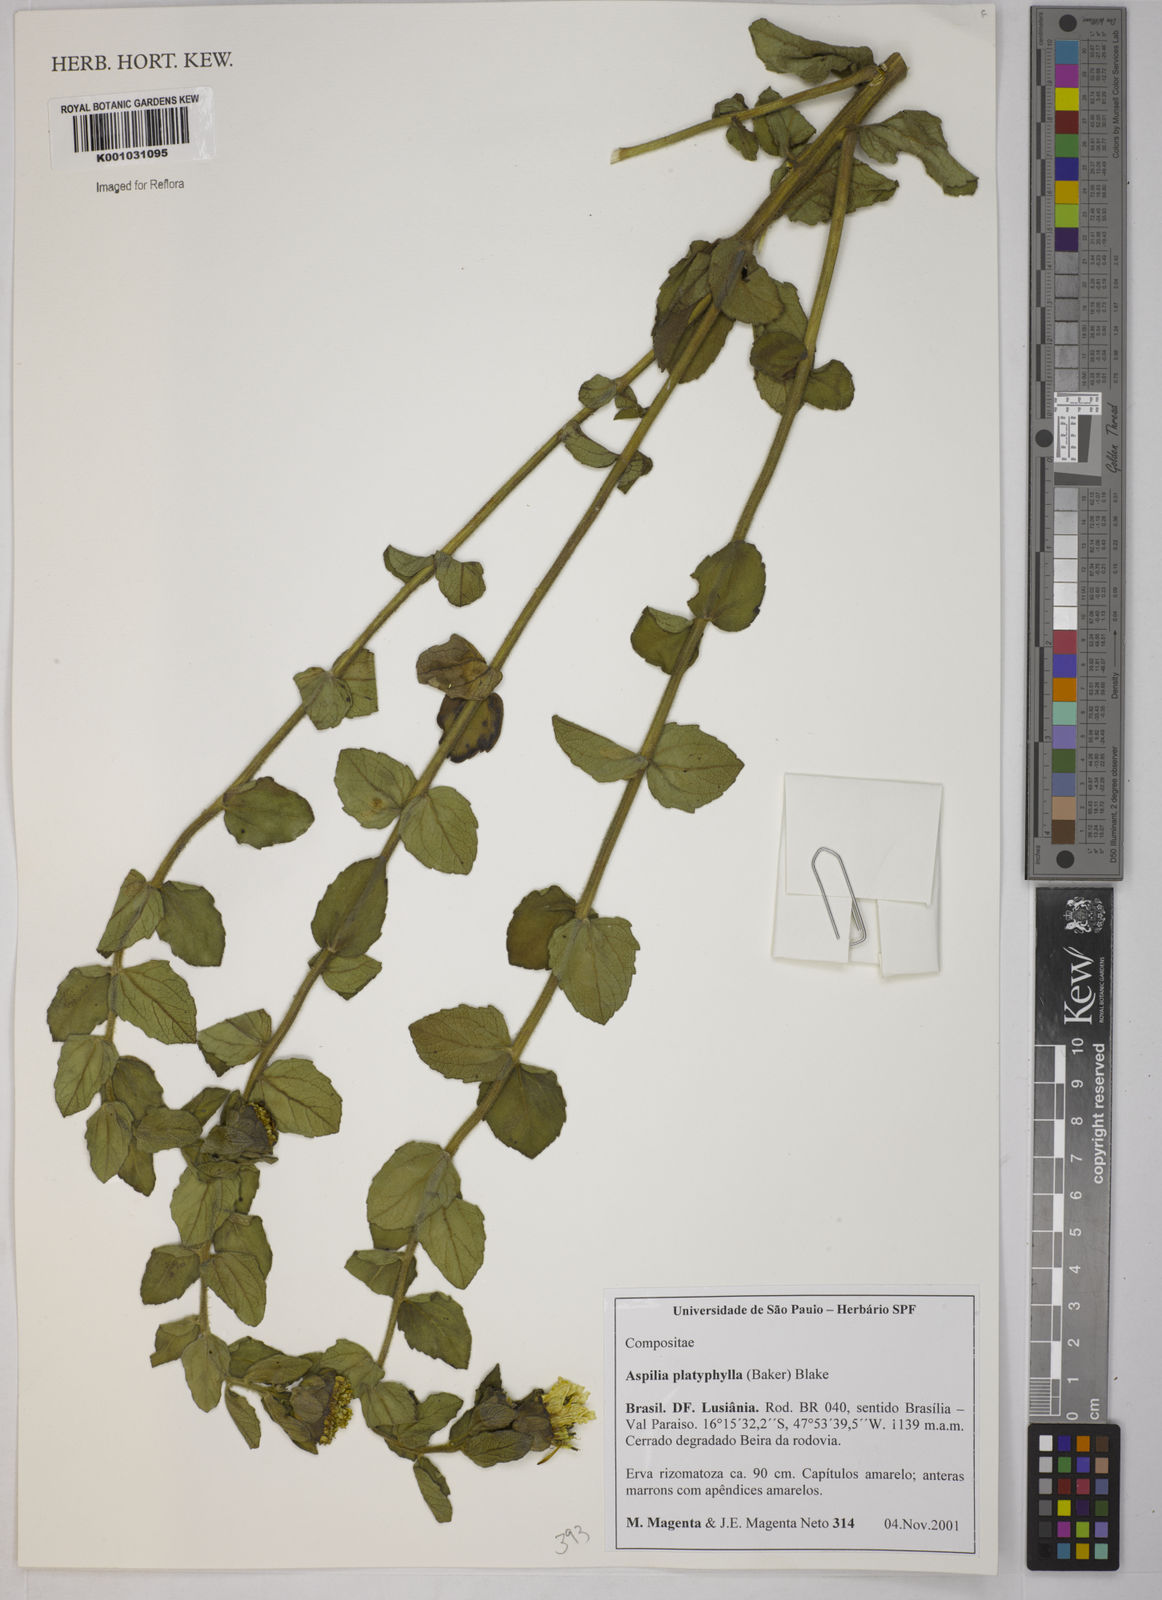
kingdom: Plantae
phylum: Tracheophyta
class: Magnoliopsida
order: Asterales
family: Asteraceae
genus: Aspilia
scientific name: Aspilia
